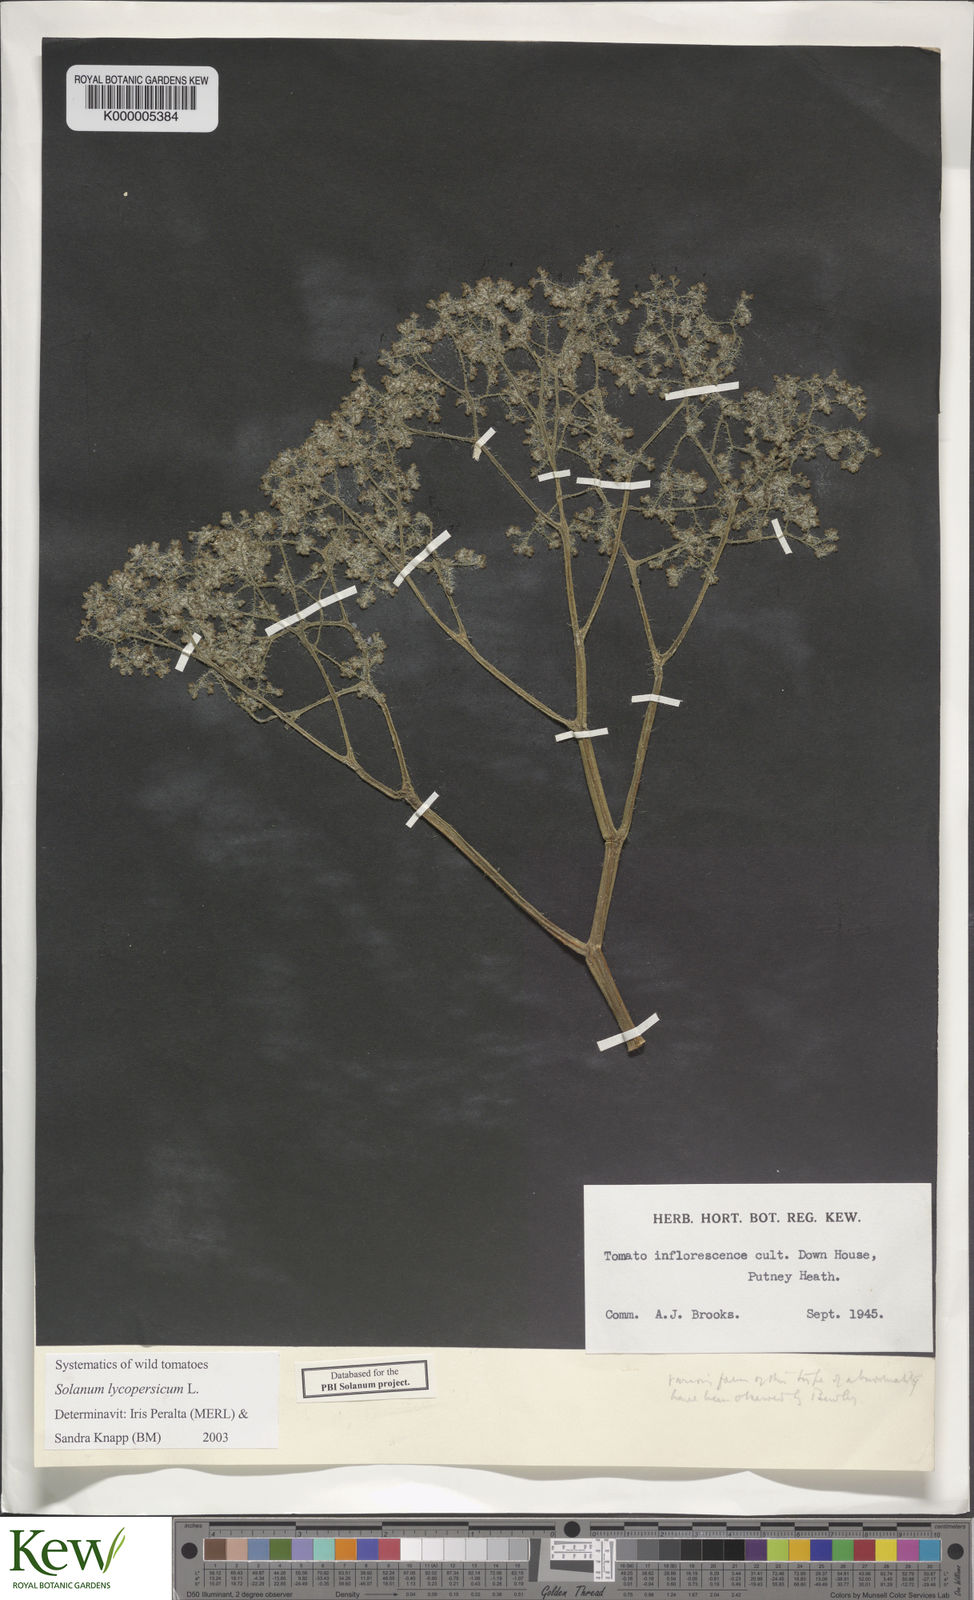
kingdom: Plantae
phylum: Tracheophyta
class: Magnoliopsida
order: Solanales
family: Solanaceae
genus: Solanum
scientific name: Solanum lycopersicum
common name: Garden tomato
